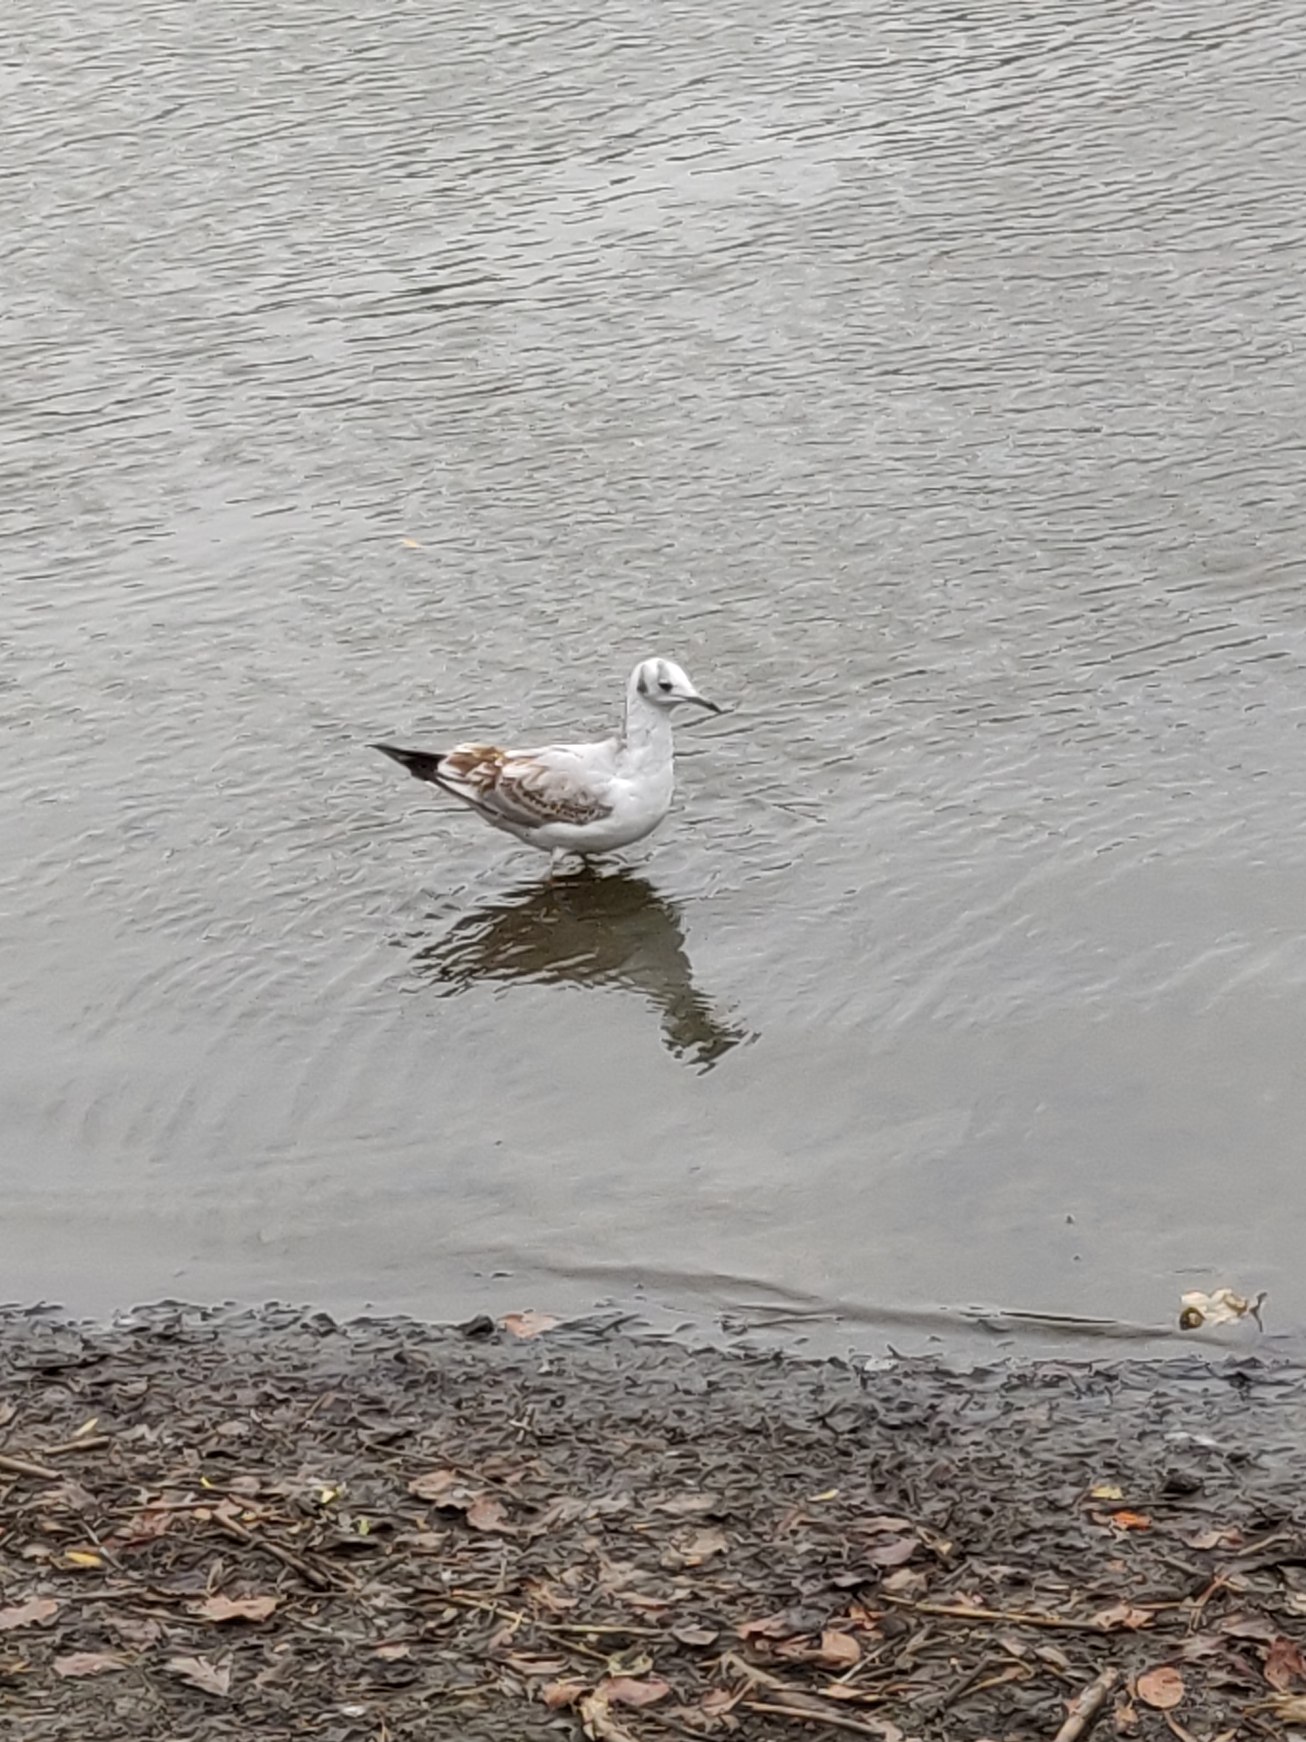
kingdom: Animalia
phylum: Chordata
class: Aves
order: Charadriiformes
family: Laridae
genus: Chroicocephalus
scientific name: Chroicocephalus ridibundus
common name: Hættemåge
